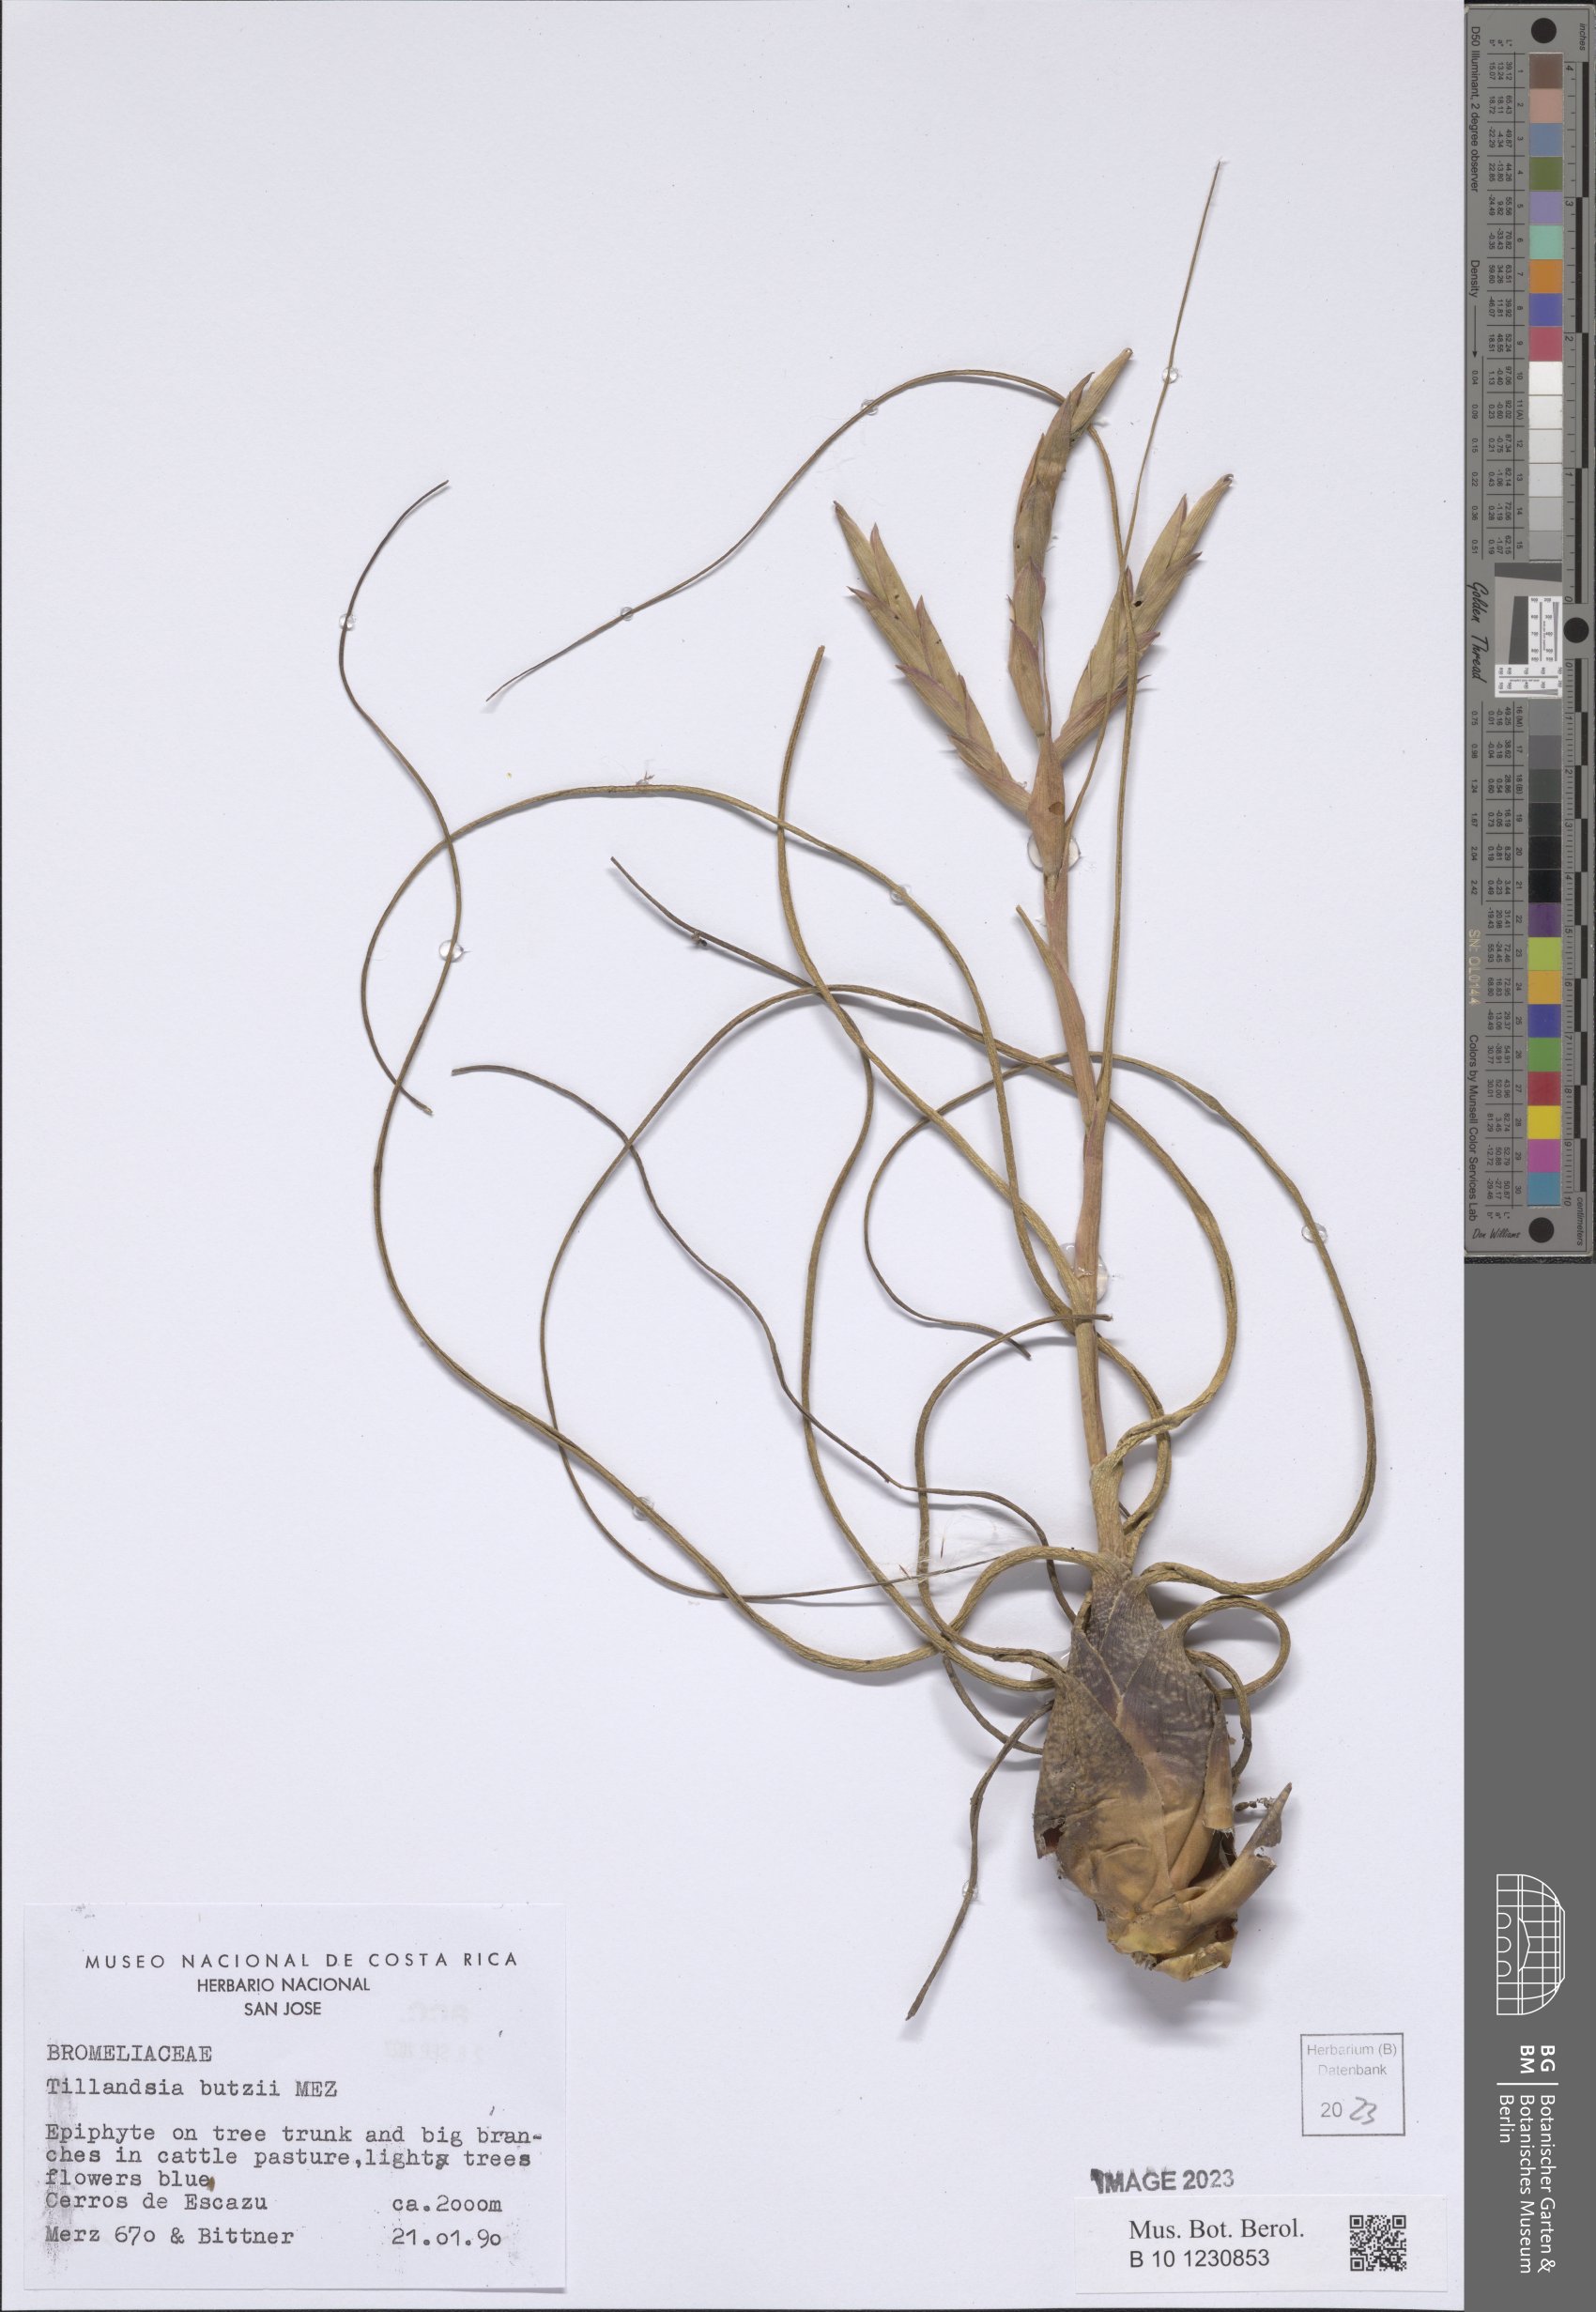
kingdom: Plantae
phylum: Tracheophyta
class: Liliopsida
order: Poales
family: Bromeliaceae
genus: Tillandsia
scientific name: Tillandsia butzii
